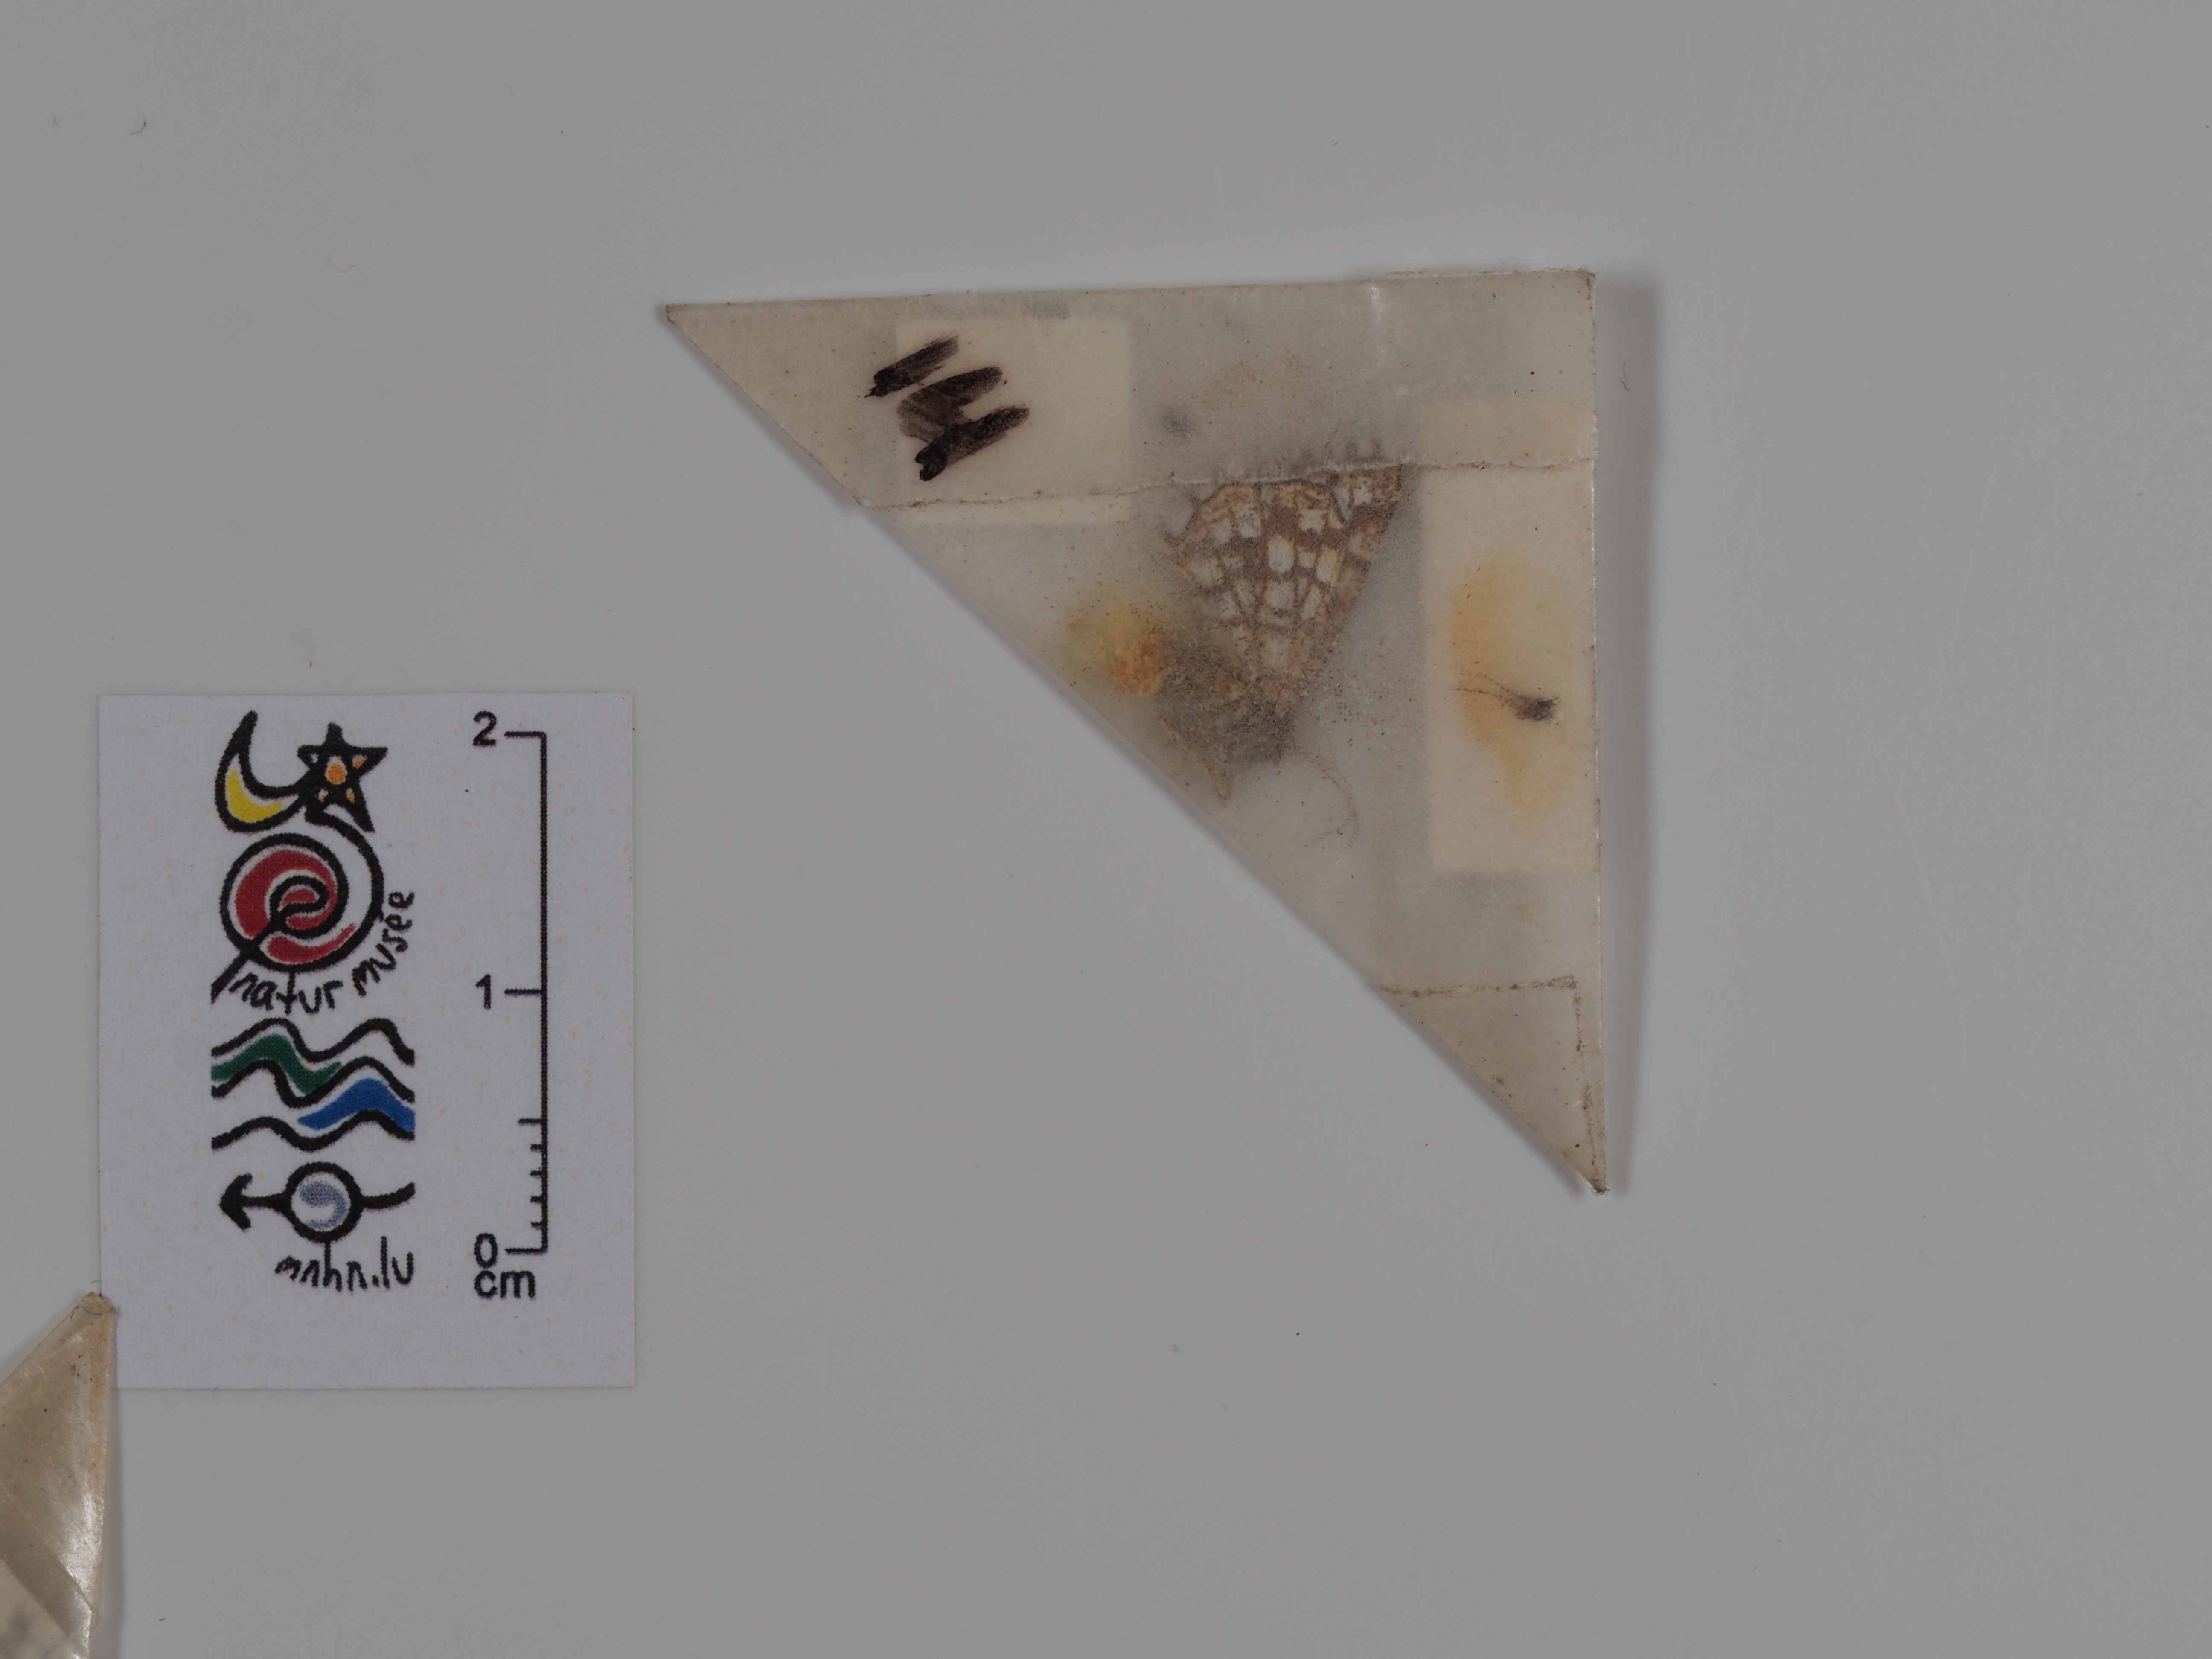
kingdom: Animalia
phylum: Arthropoda
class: Insecta
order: Lepidoptera
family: Geometridae
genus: Chiasmia
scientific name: Chiasmia clathrata
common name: Latticed heath
